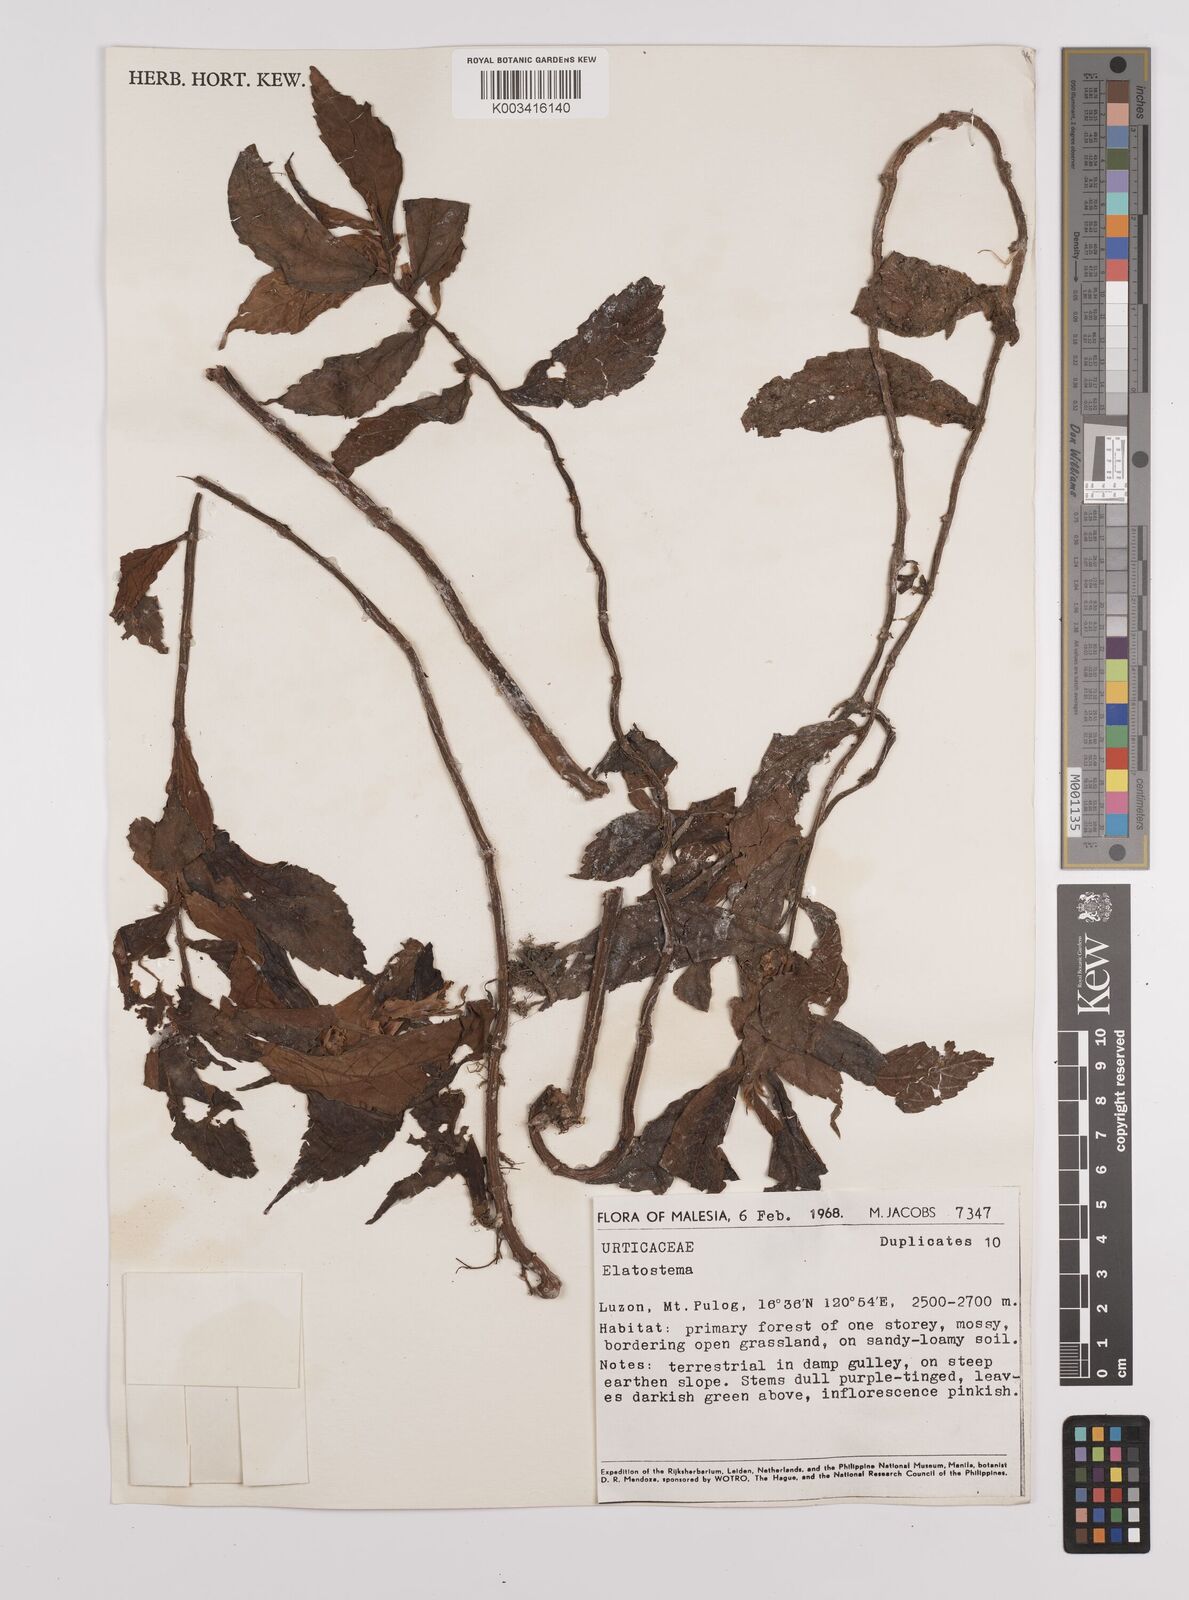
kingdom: Plantae
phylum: Tracheophyta
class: Magnoliopsida
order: Rosales
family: Urticaceae
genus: Elatostema
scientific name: Elatostema
